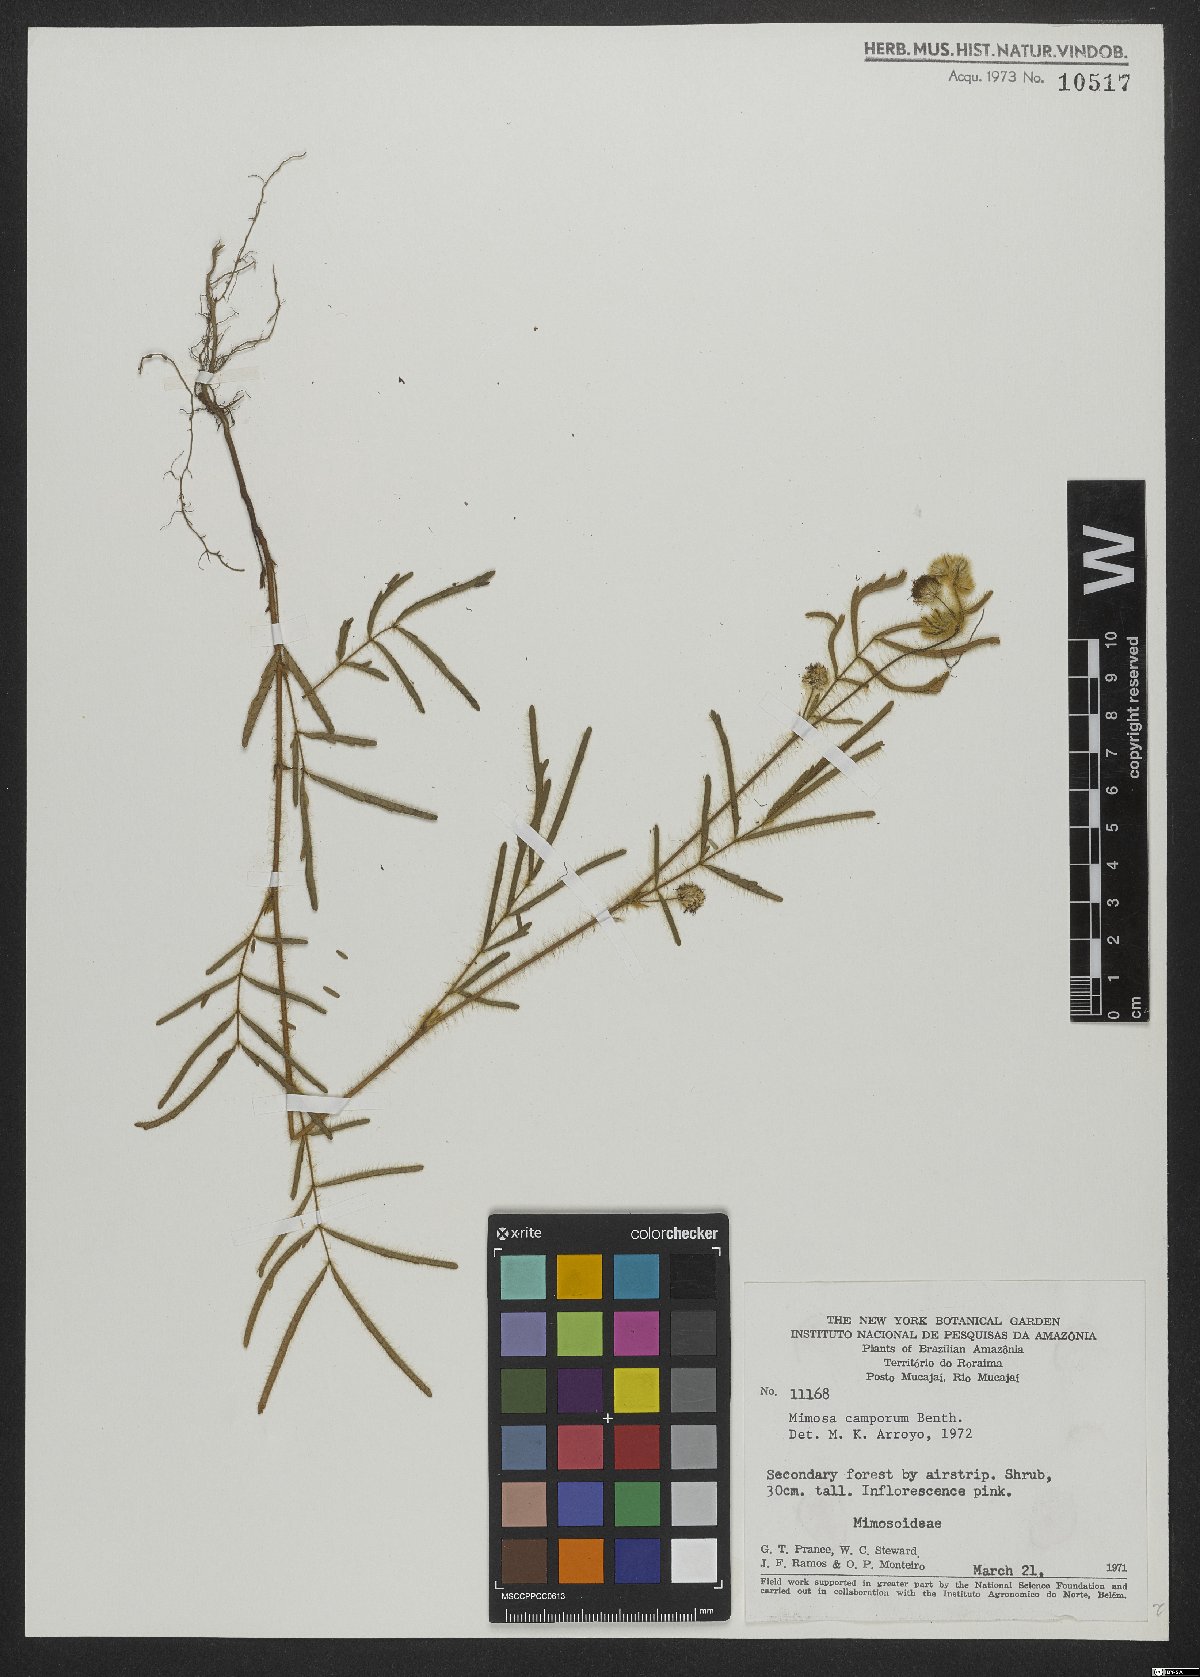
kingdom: Plantae
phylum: Tracheophyta
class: Magnoliopsida
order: Fabales
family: Fabaceae
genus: Mimosa
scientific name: Mimosa camporum
